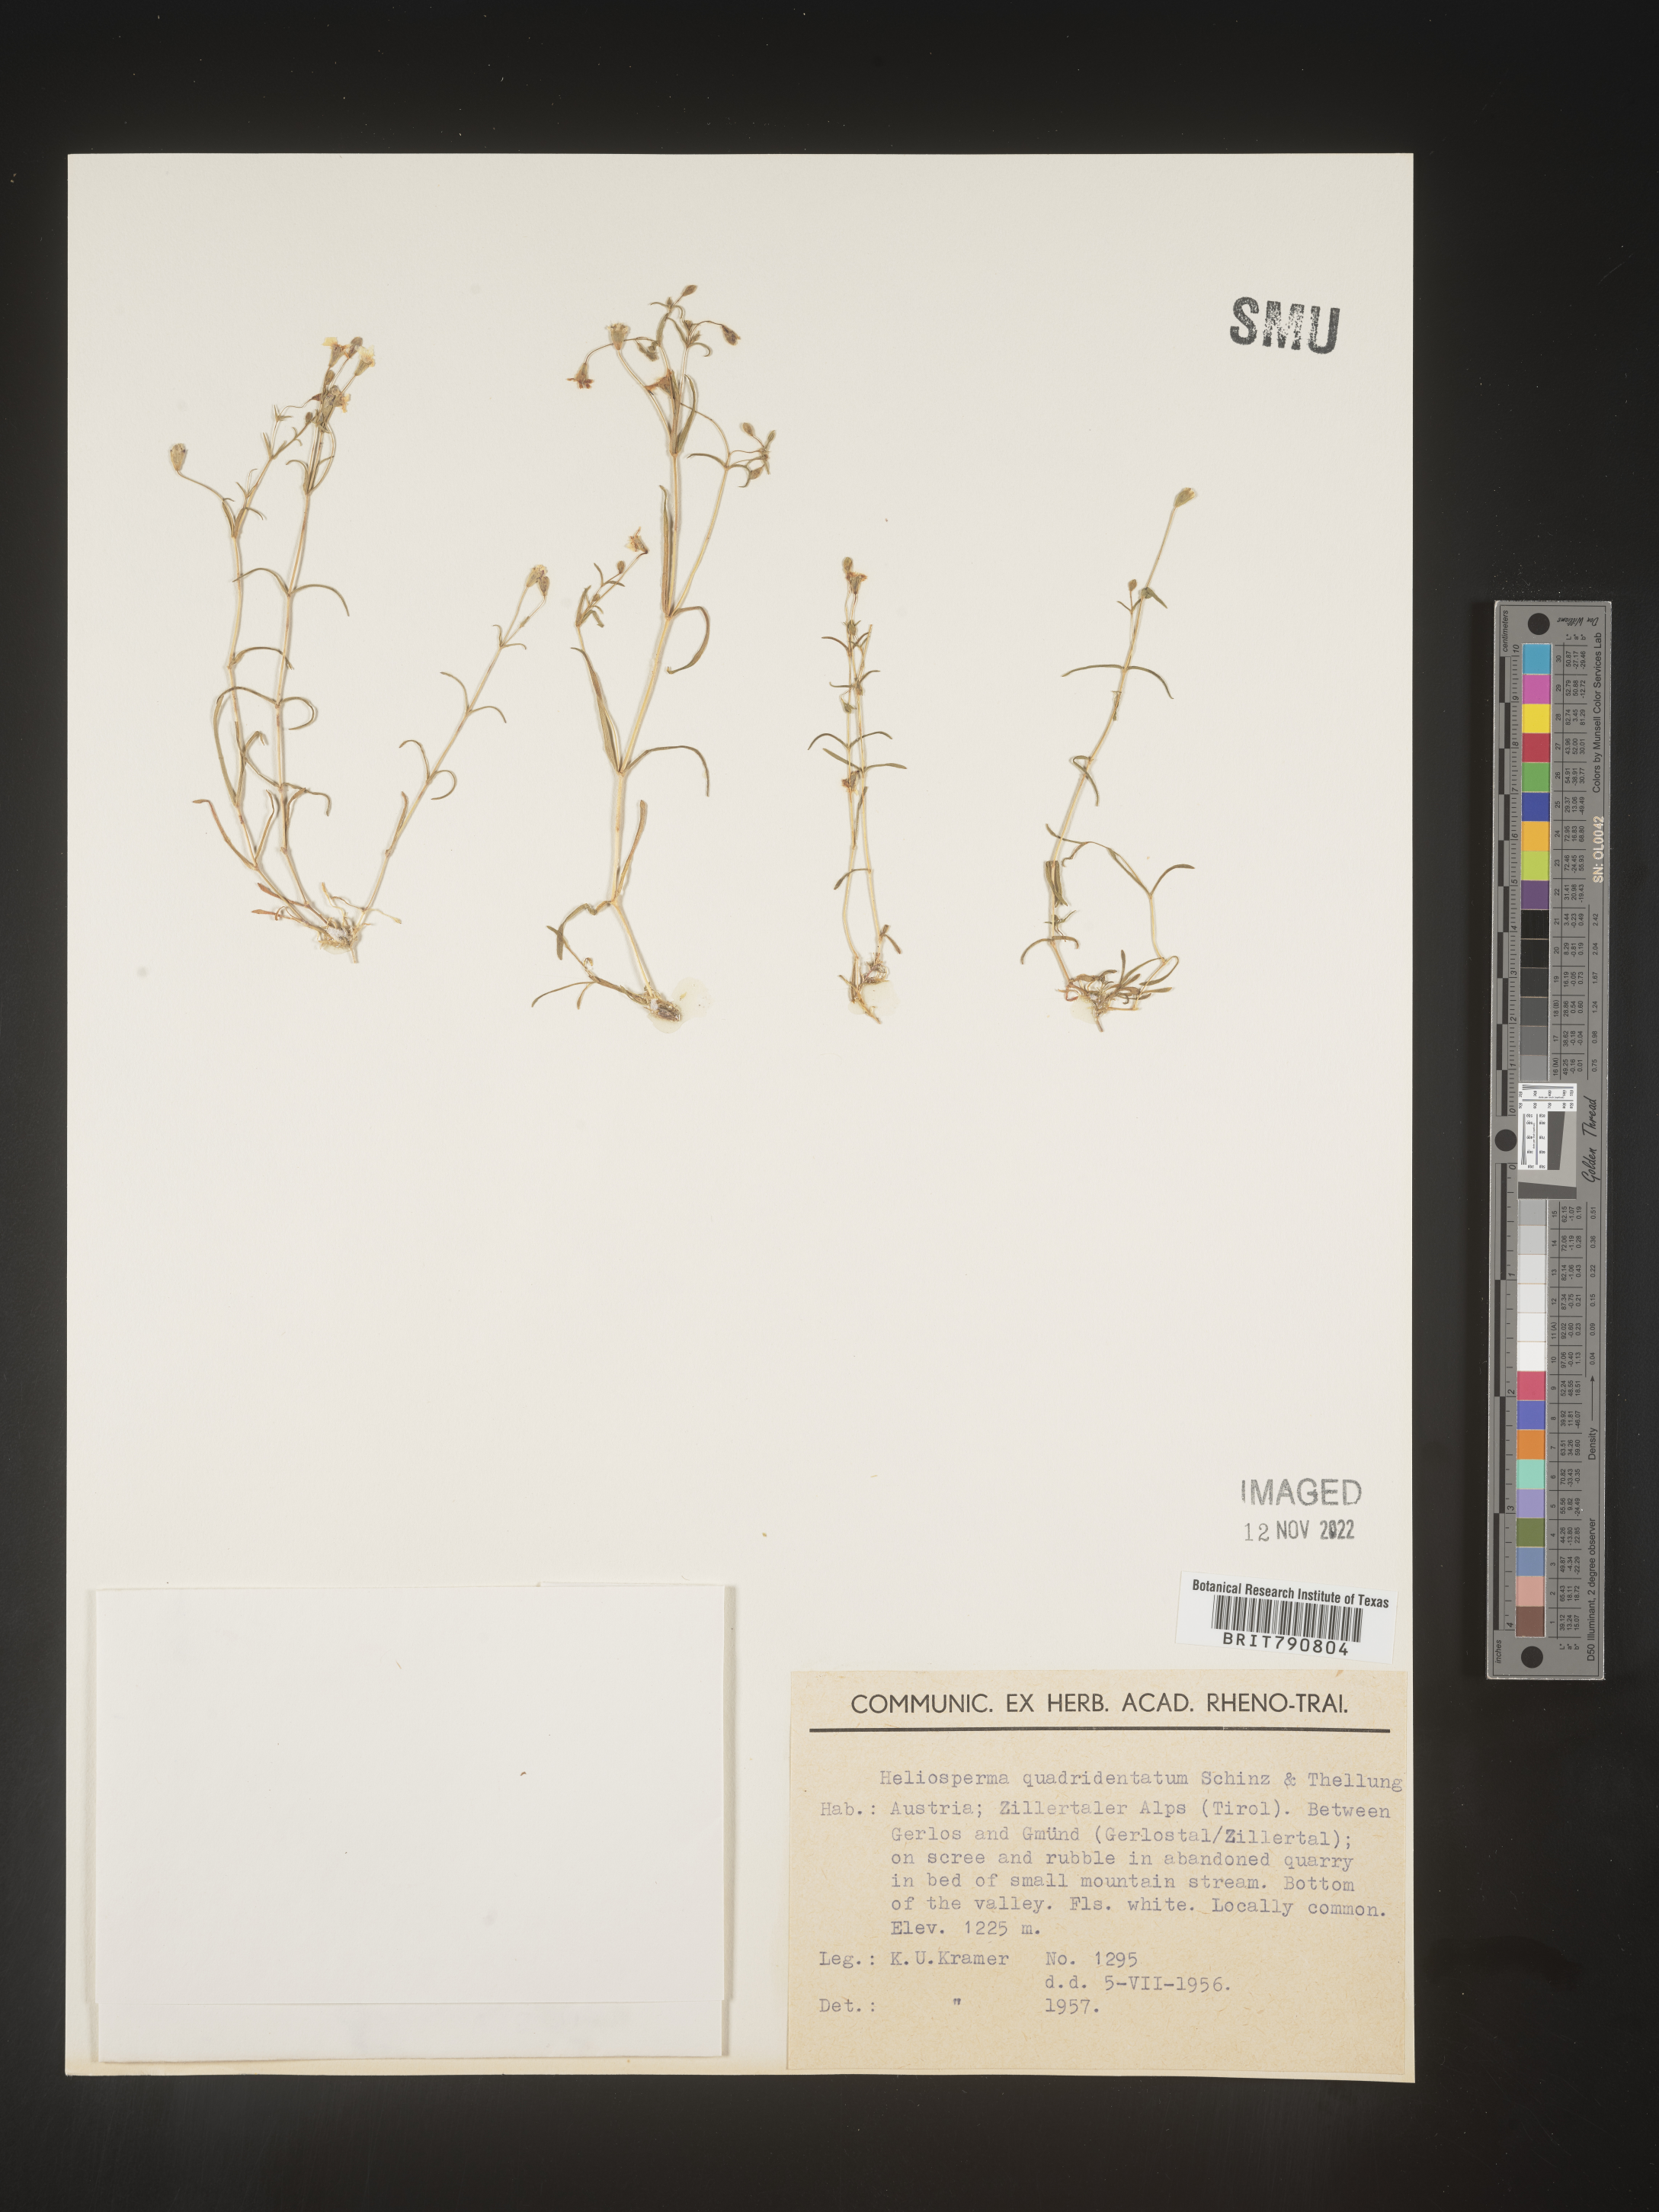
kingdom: Plantae
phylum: Tracheophyta
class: Magnoliopsida
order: Caryophyllales
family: Caryophyllaceae
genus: Heliosperma
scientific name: Heliosperma
